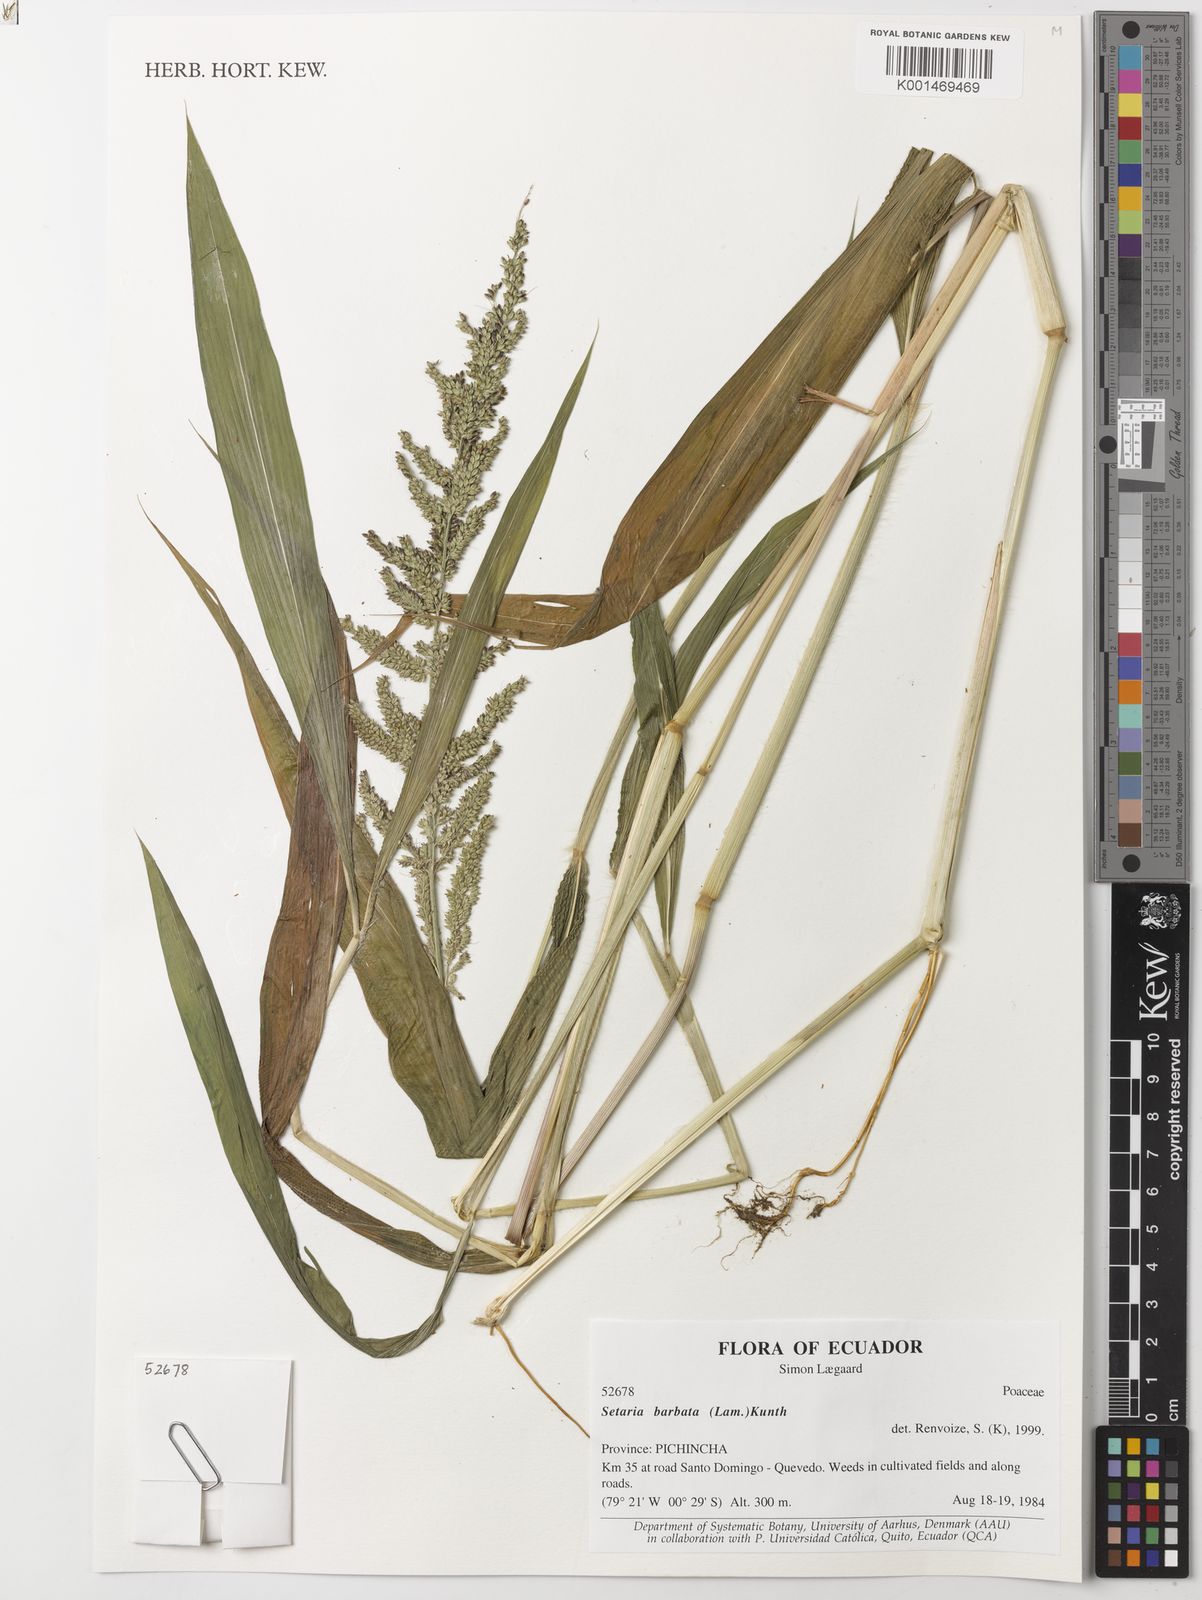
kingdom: Plantae
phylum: Tracheophyta
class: Liliopsida
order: Poales
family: Poaceae
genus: Setaria
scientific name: Setaria barbata
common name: East indian bristlegrass
